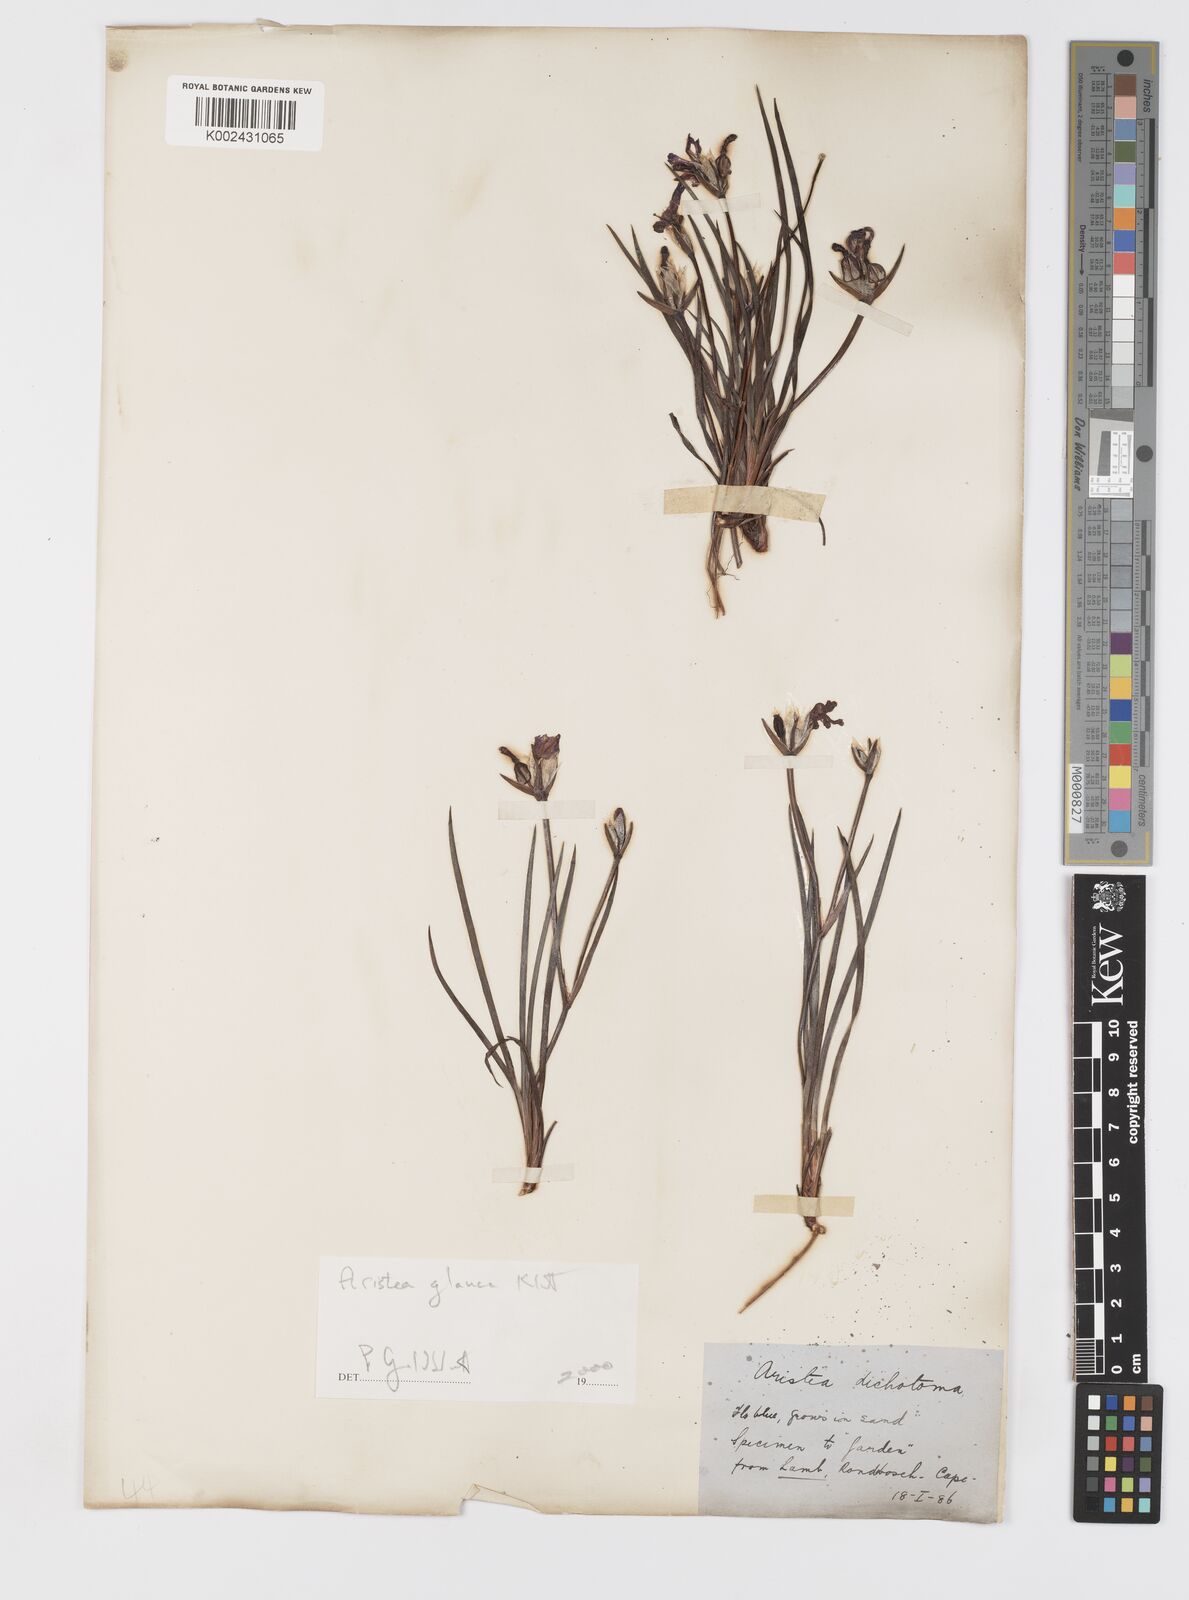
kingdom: Plantae
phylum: Tracheophyta
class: Liliopsida
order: Asparagales
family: Iridaceae
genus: Aristea
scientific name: Aristea glauca
